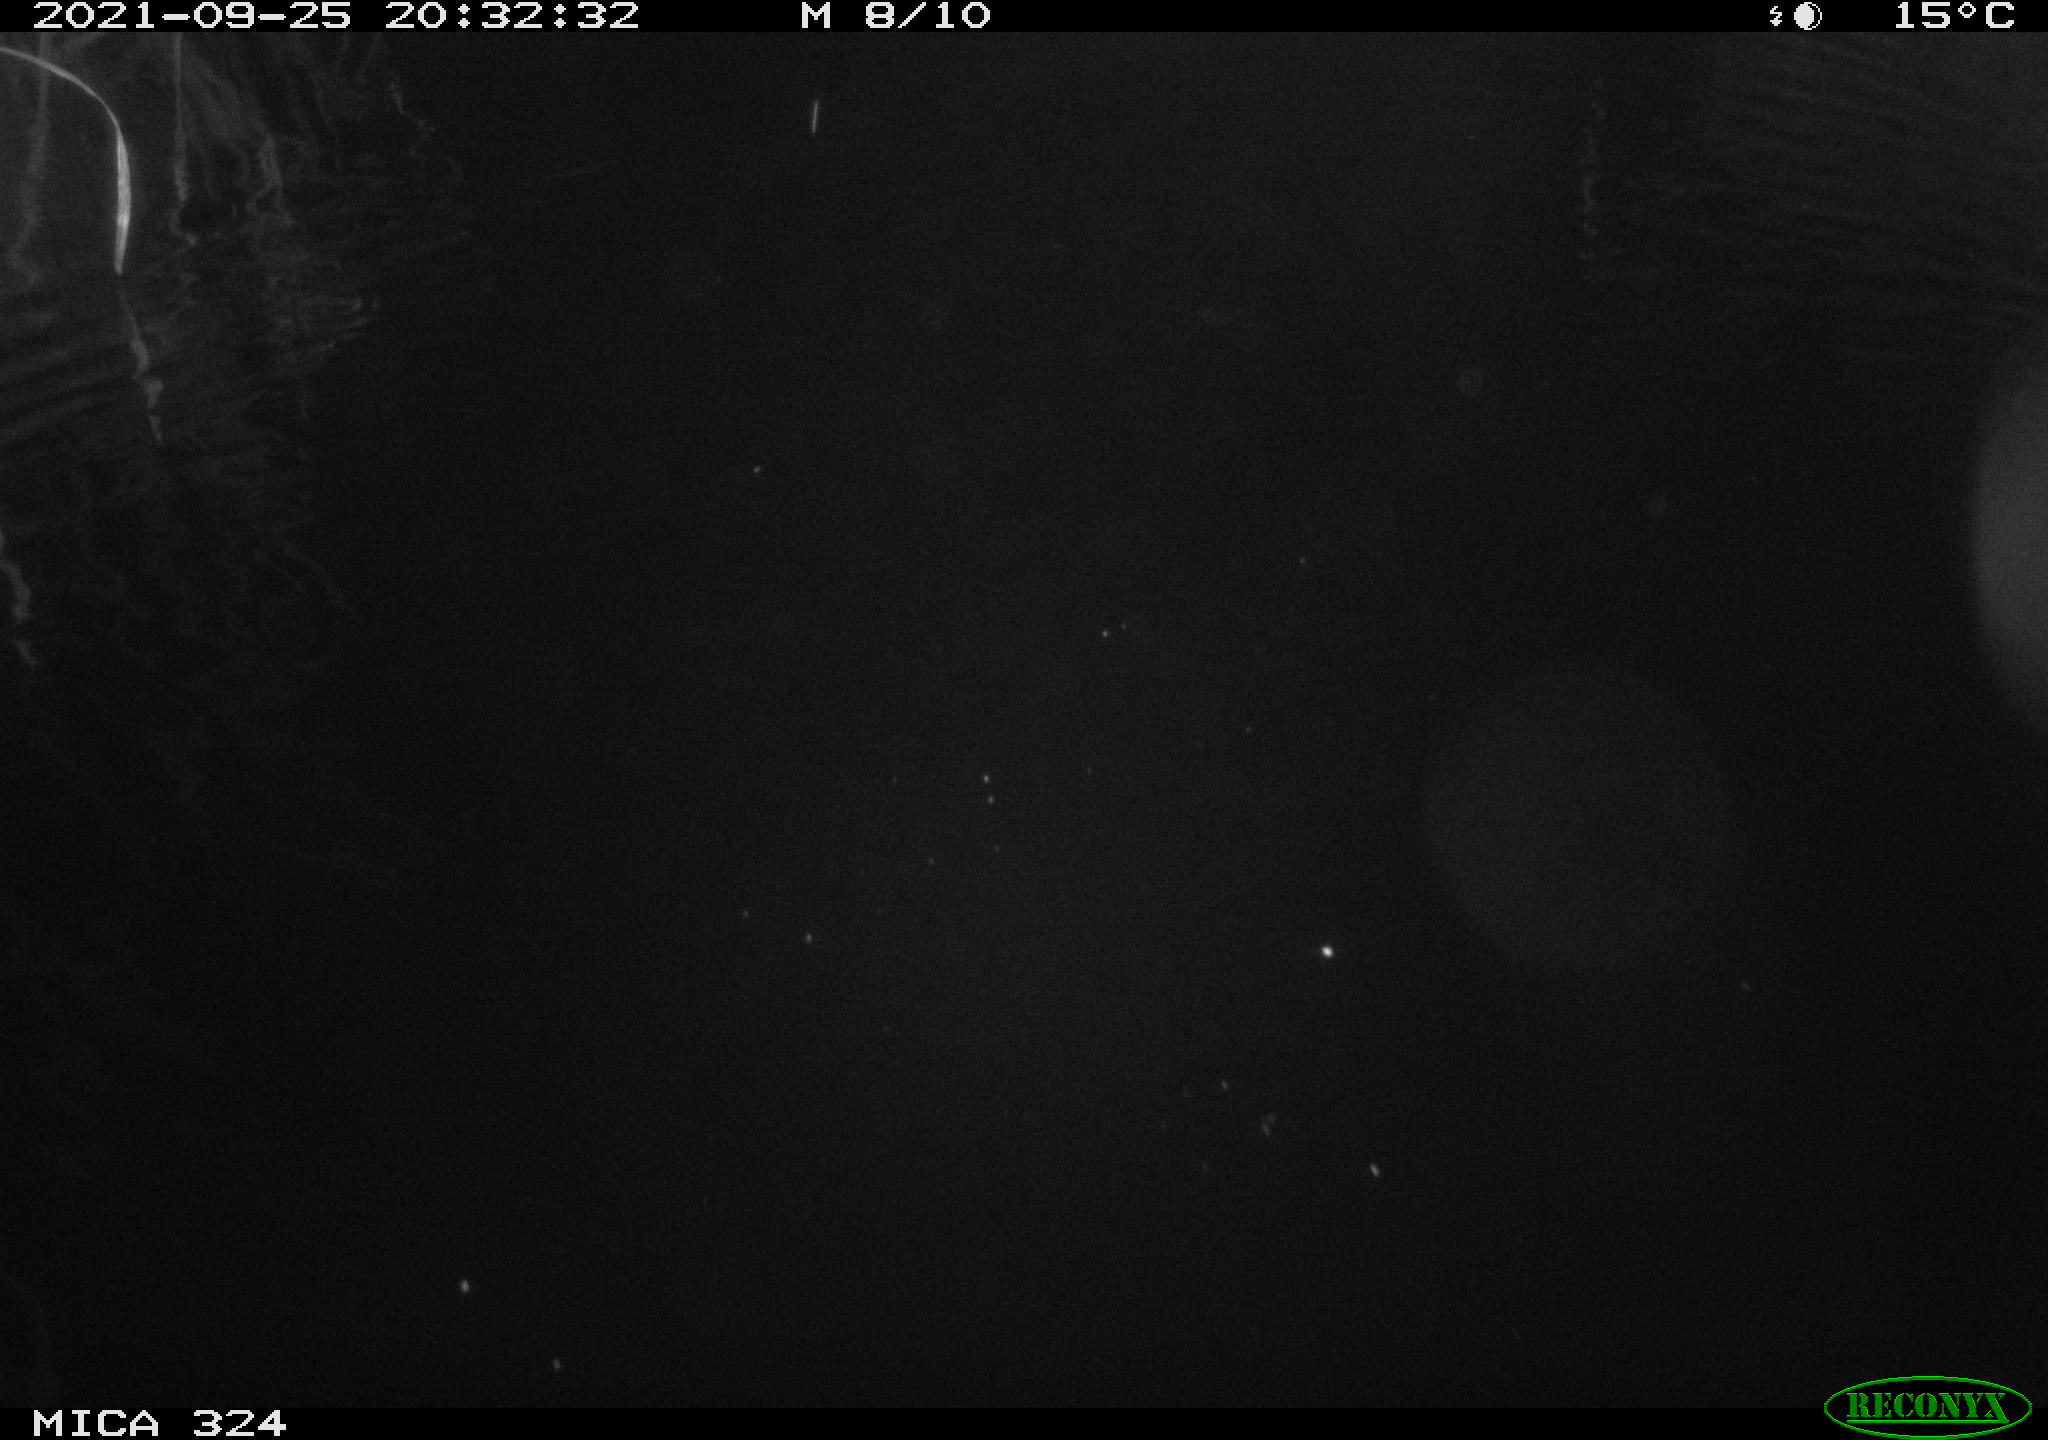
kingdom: Animalia
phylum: Chordata
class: Mammalia
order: Rodentia
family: Cricetidae
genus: Ondatra
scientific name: Ondatra zibethicus
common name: Muskrat
